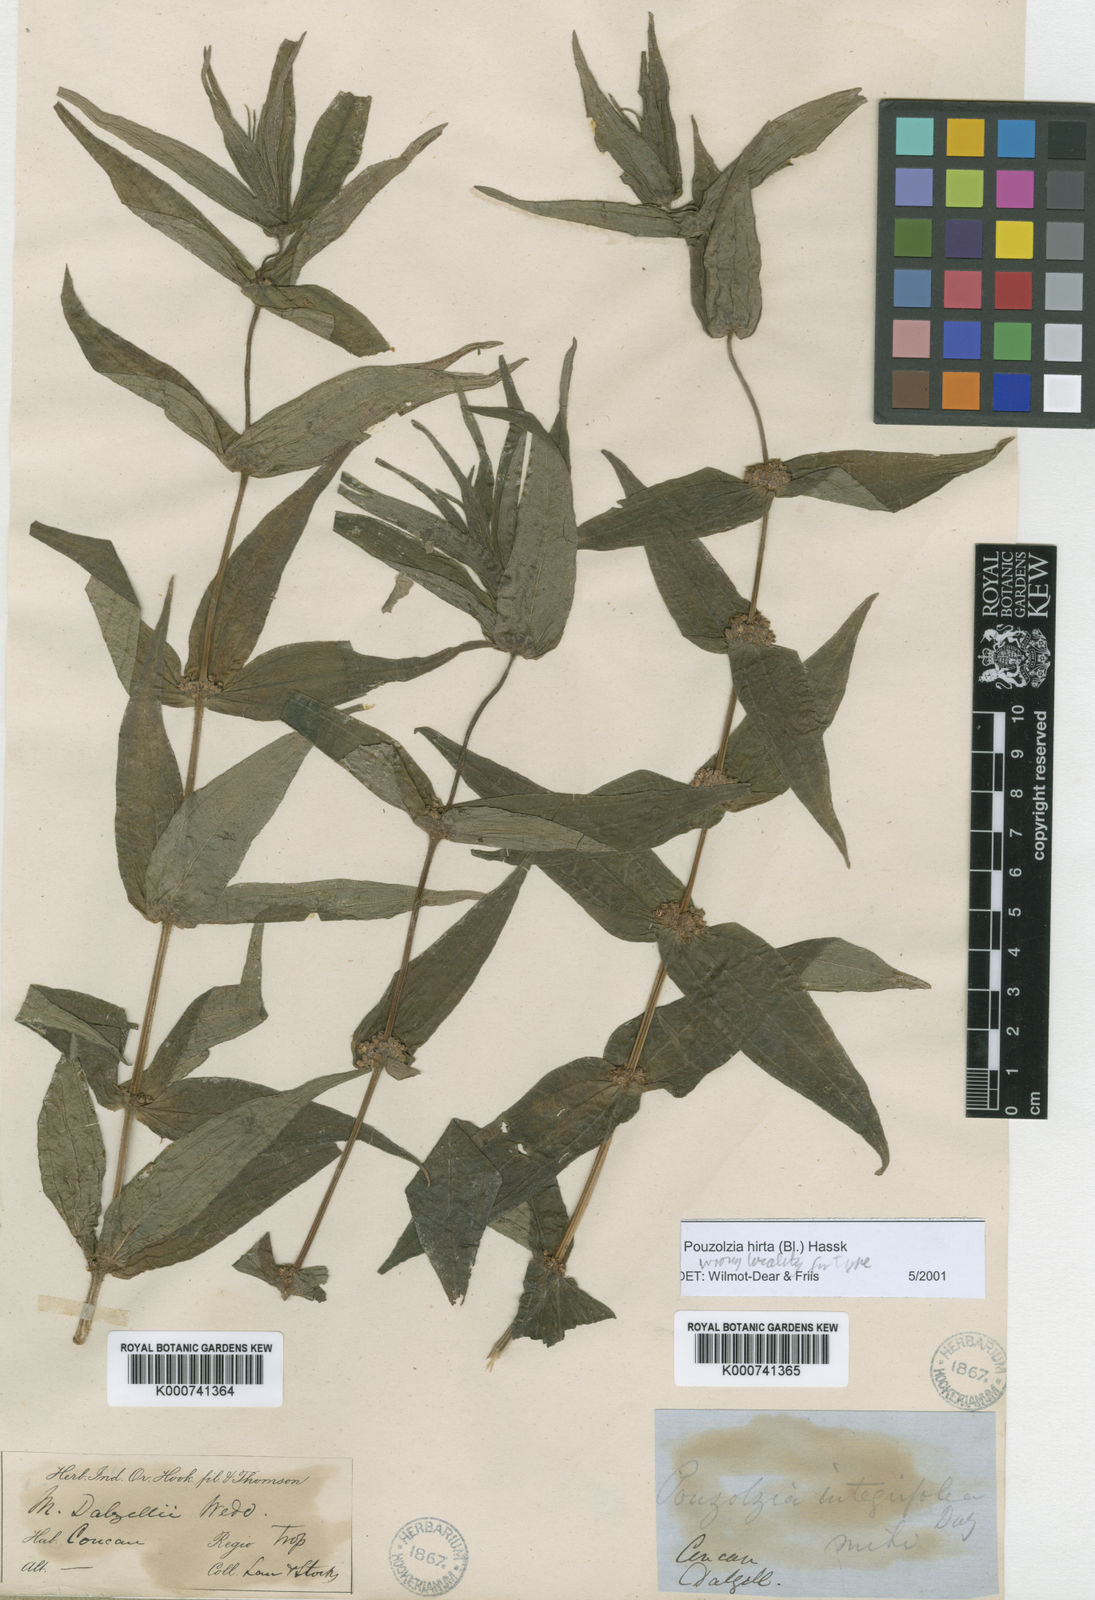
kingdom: Plantae
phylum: Tracheophyta
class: Magnoliopsida
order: Rosales
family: Urticaceae
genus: Gonostegia
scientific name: Gonostegia triandra
